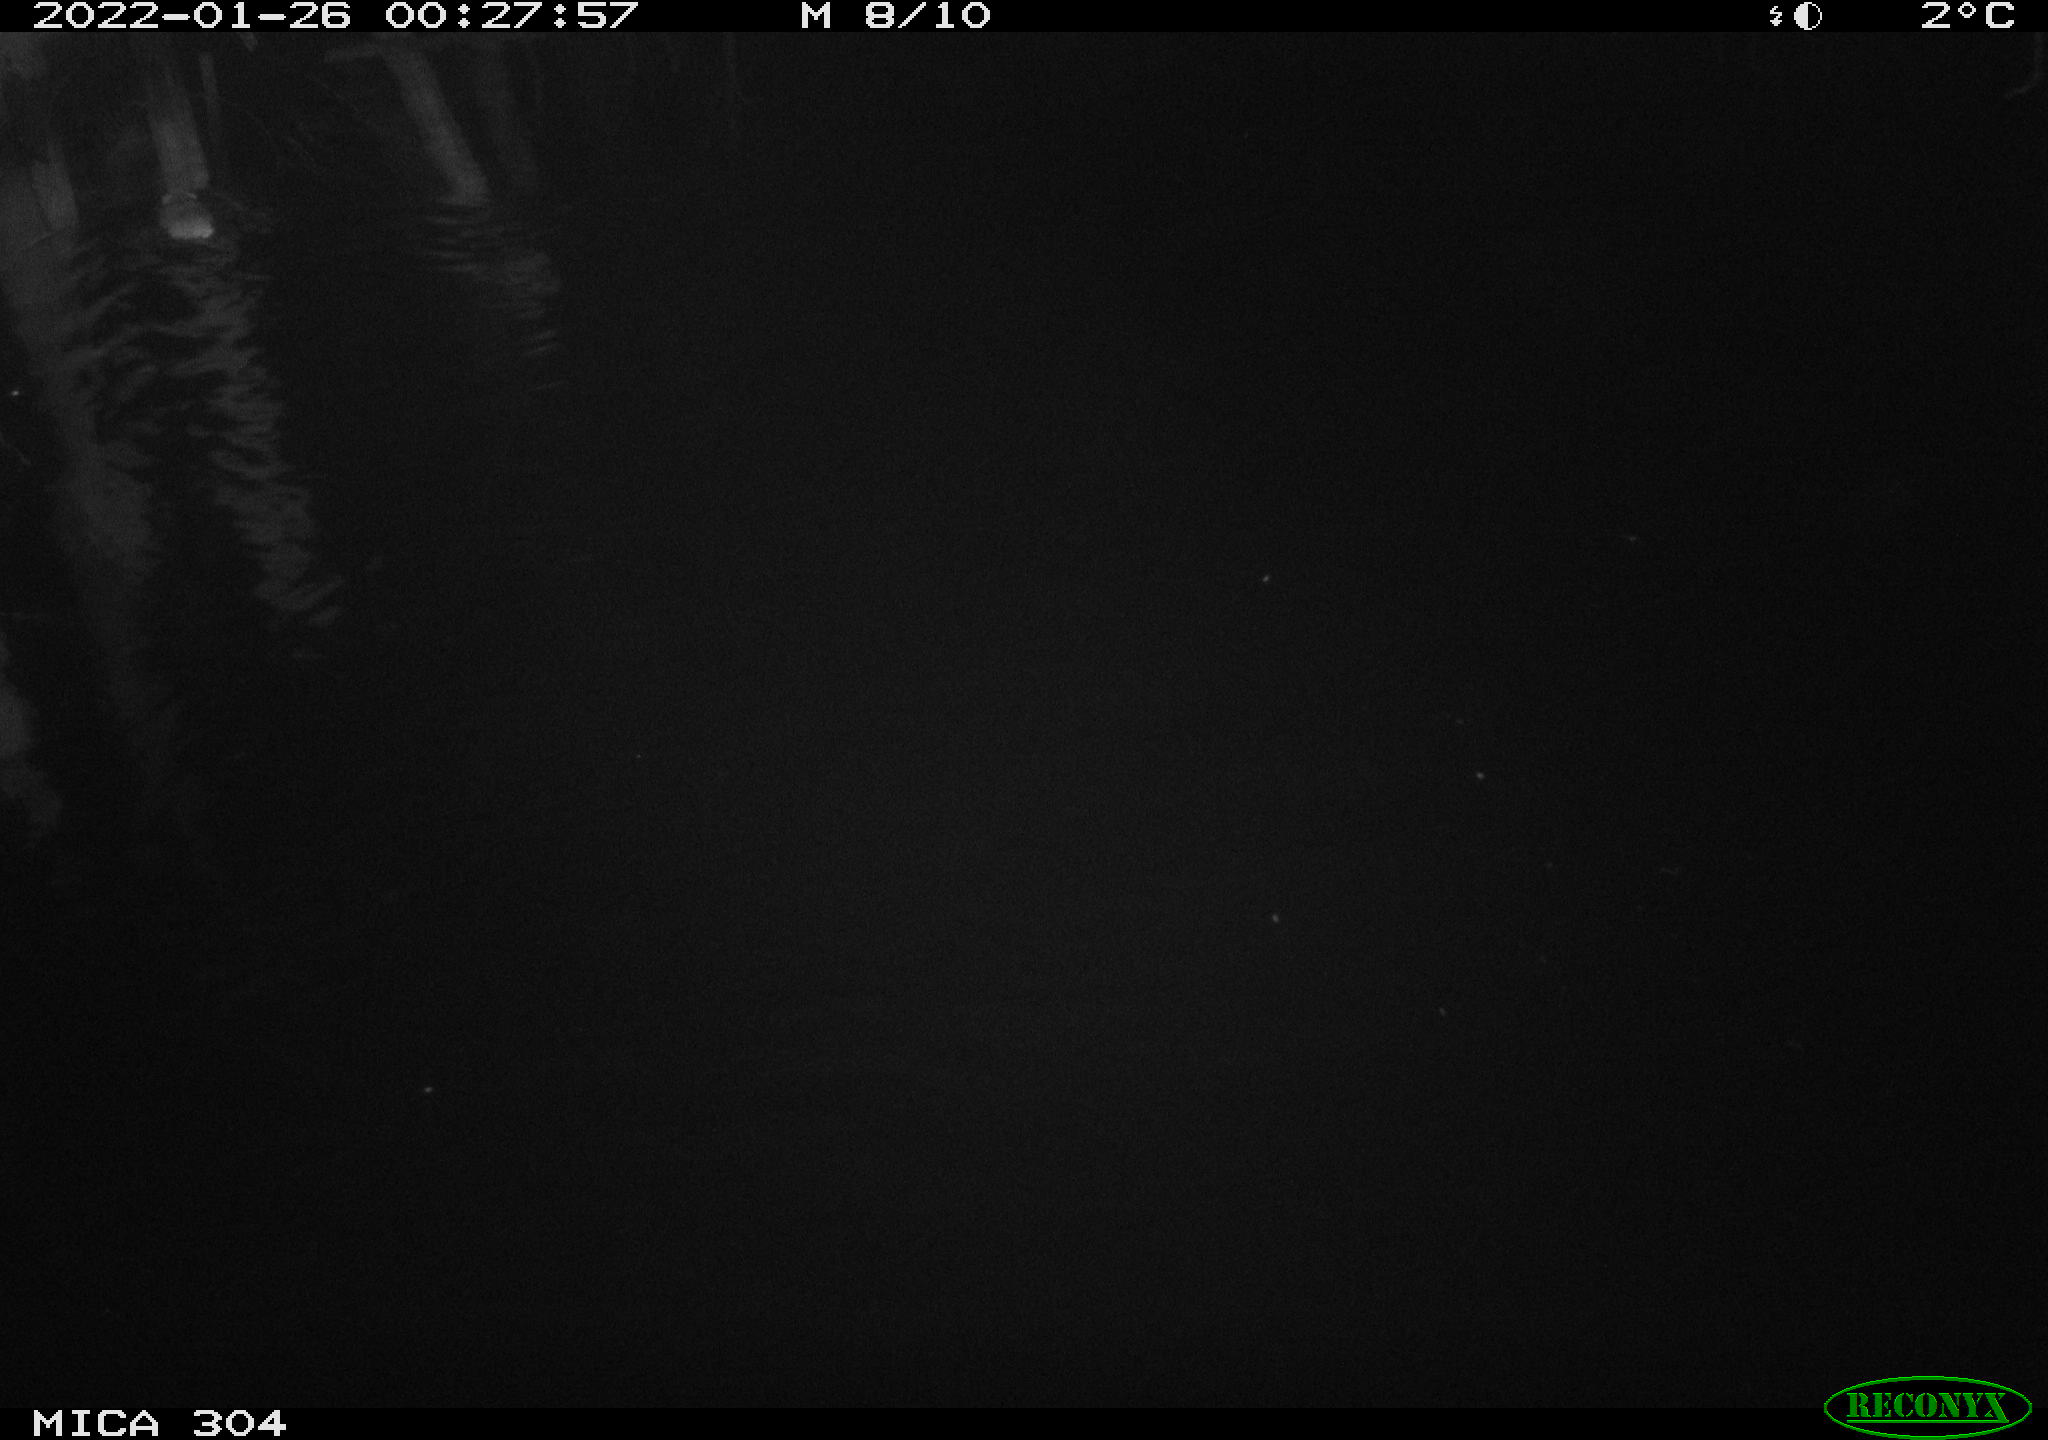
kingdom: Animalia
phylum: Chordata
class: Mammalia
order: Rodentia
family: Muridae
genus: Rattus
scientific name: Rattus norvegicus
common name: Brown rat
